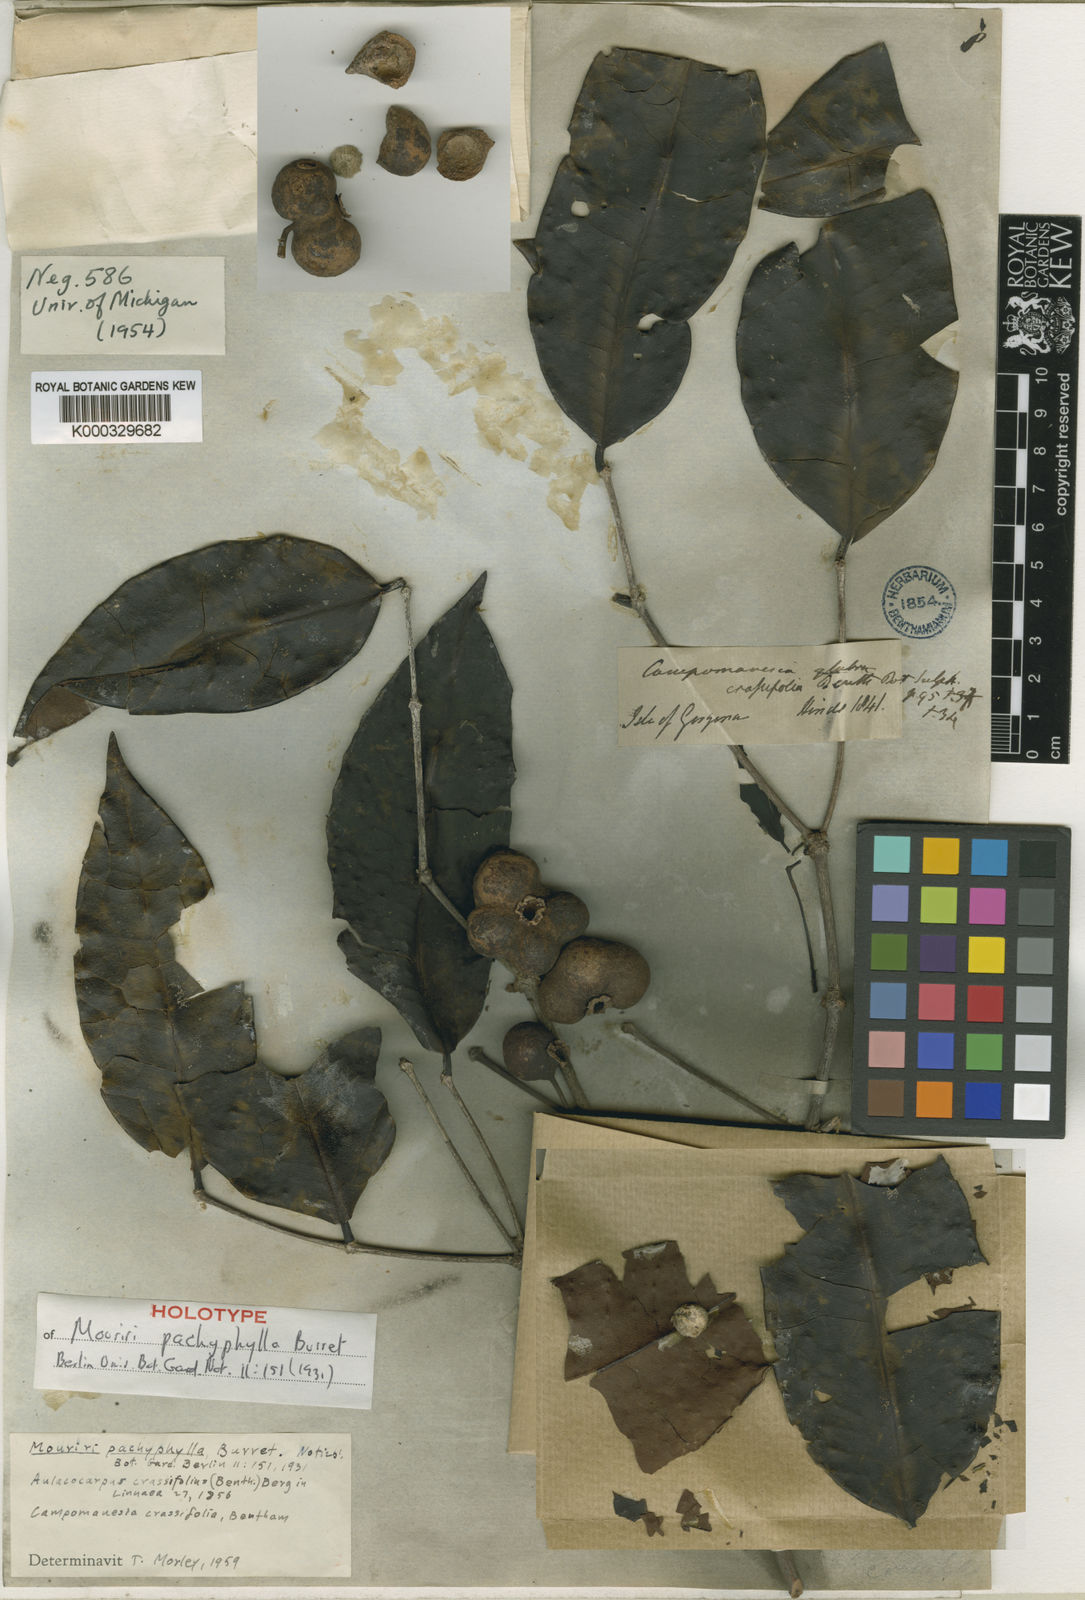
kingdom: Plantae
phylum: Tracheophyta
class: Magnoliopsida
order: Myrtales
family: Melastomataceae
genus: Mouriri
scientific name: Mouriri pachyphylla
